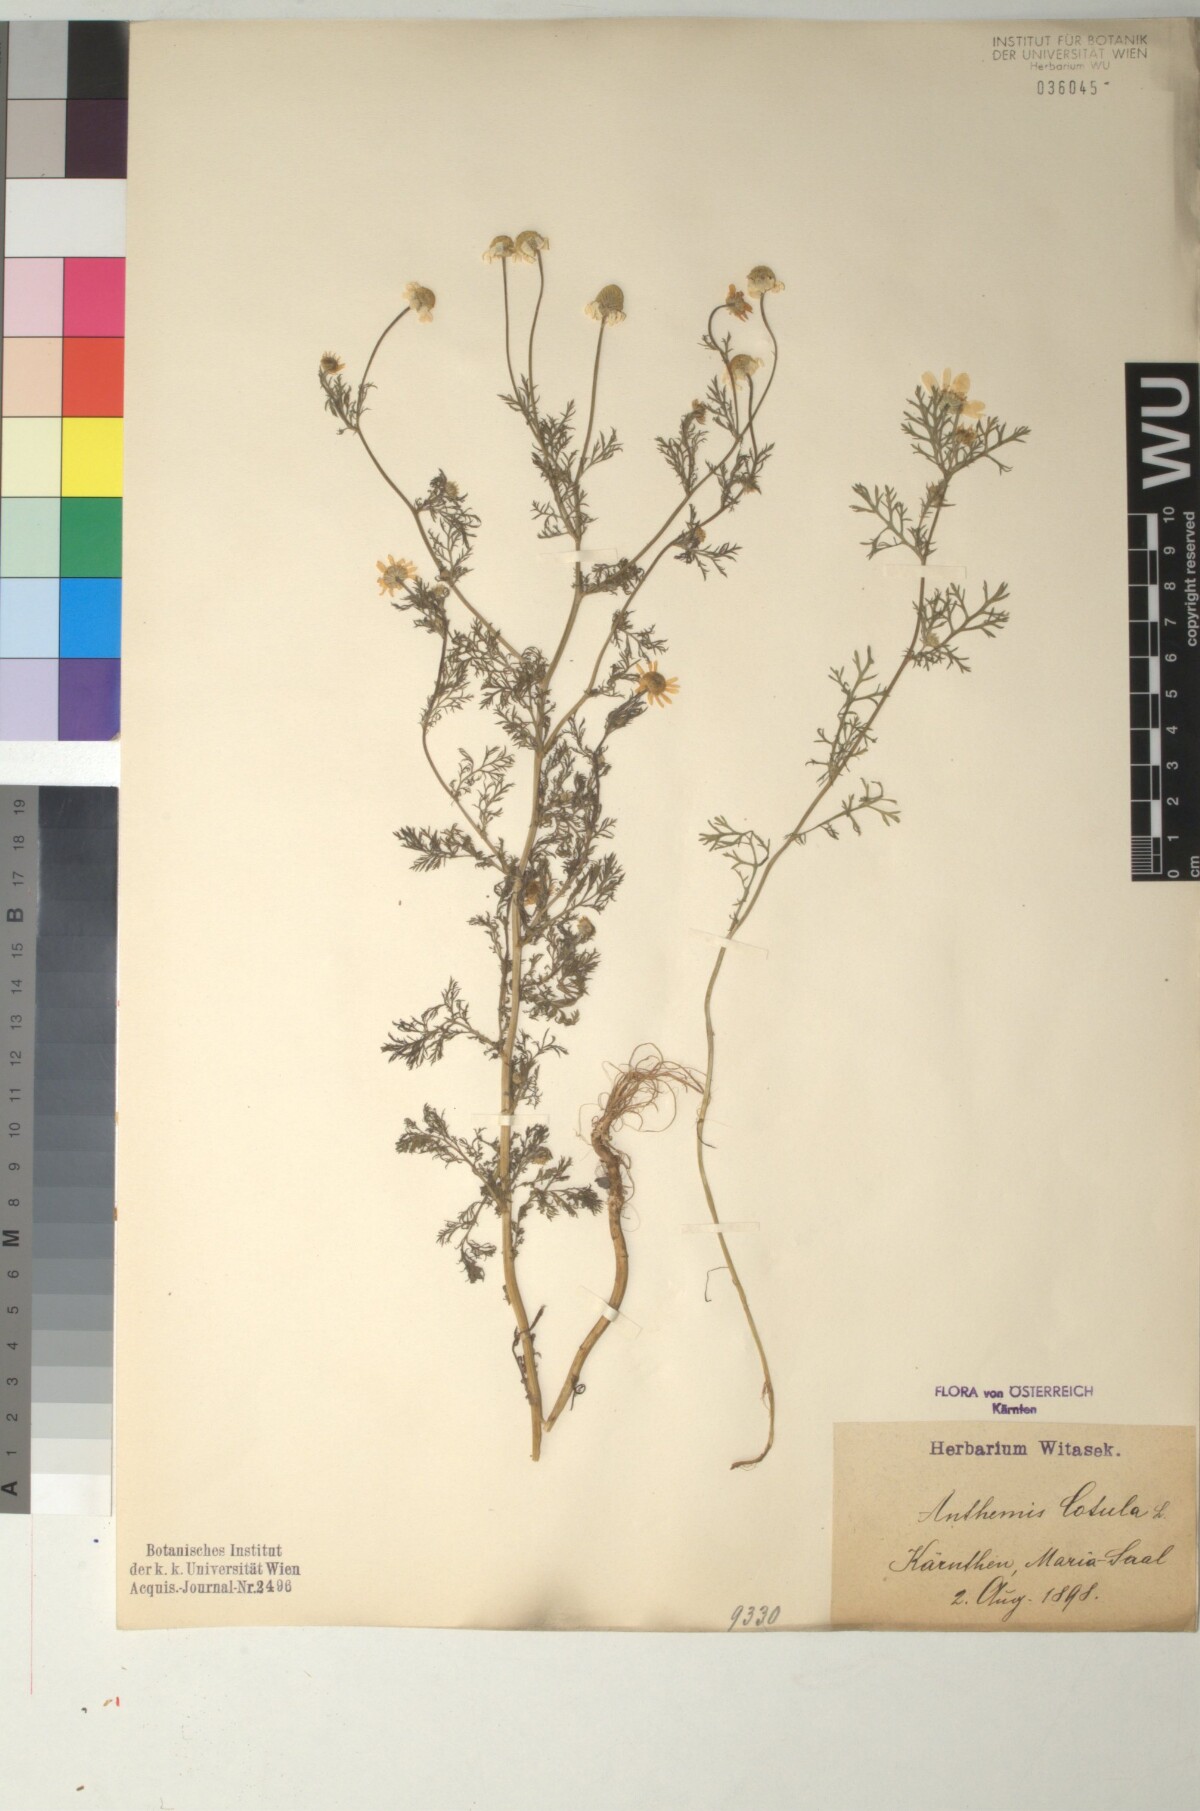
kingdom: Plantae
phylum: Tracheophyta
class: Magnoliopsida
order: Asterales
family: Asteraceae
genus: Anthemis
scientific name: Anthemis cotula
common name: Stinking chamomile
